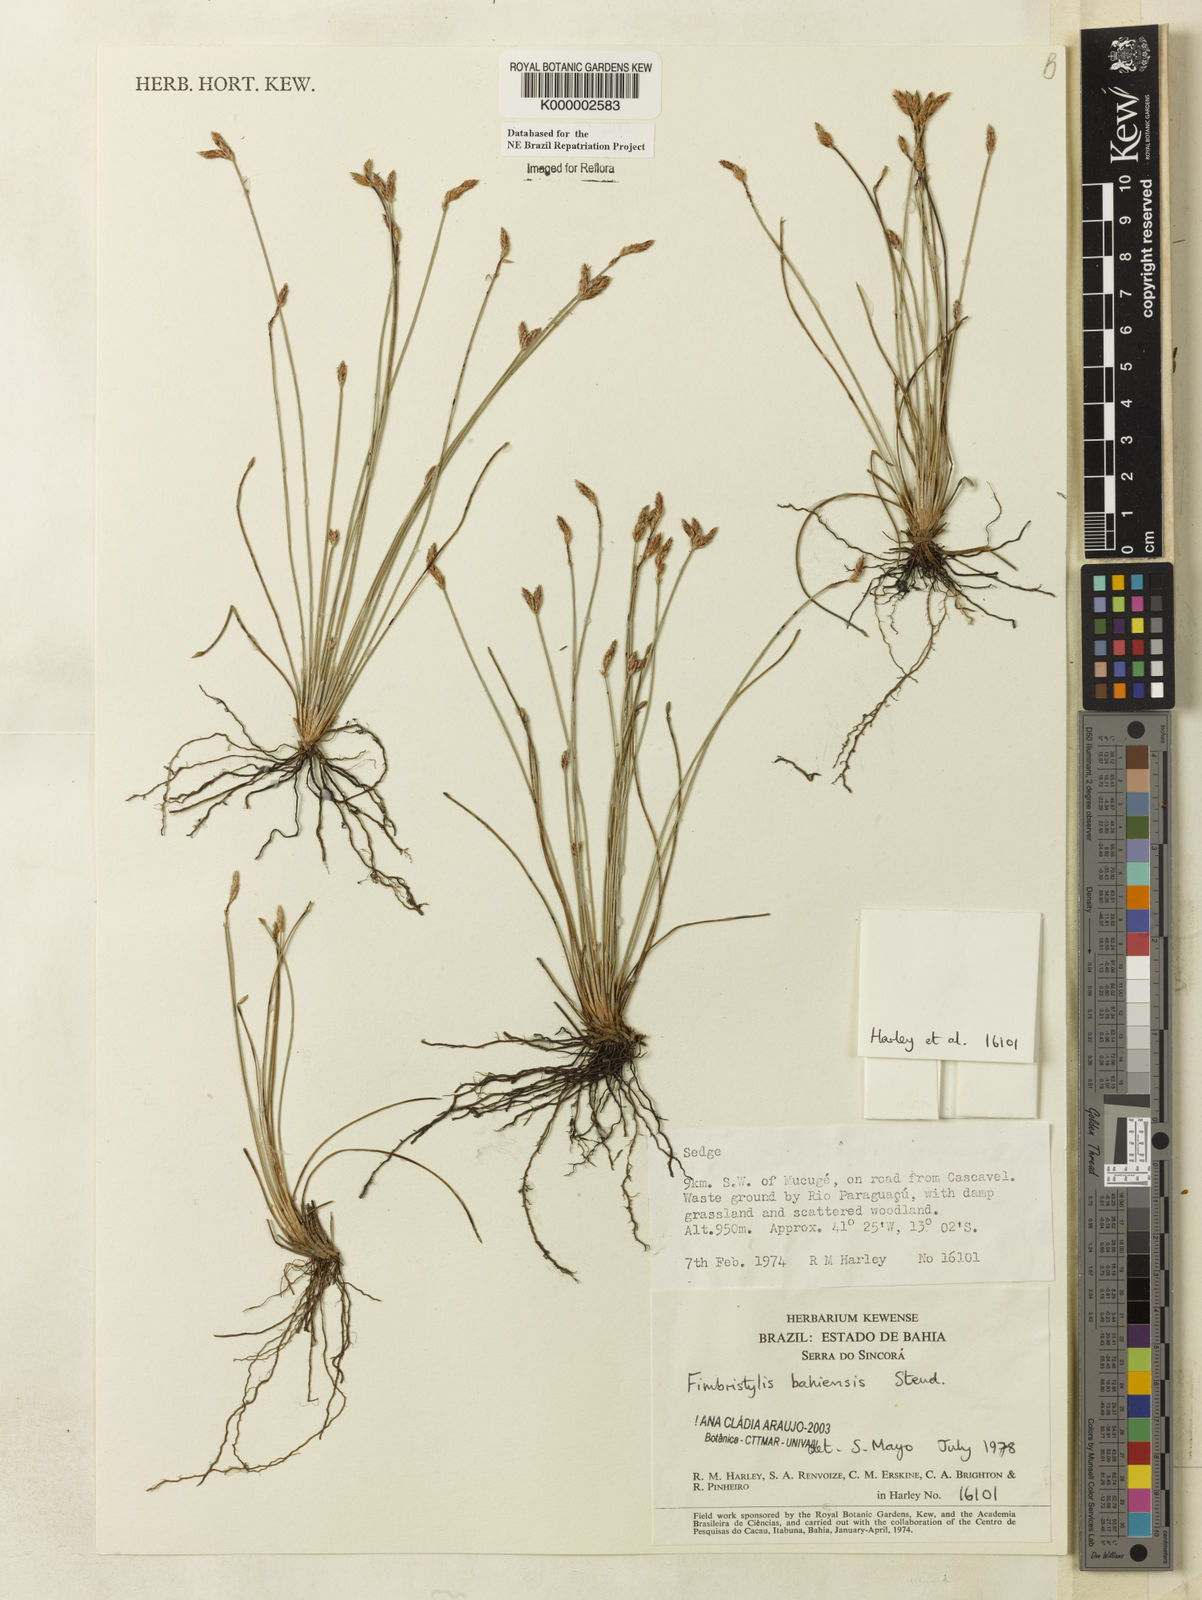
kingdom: Plantae
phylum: Tracheophyta
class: Liliopsida
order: Poales
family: Cyperaceae
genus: Fimbristylis
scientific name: Fimbristylis bahiensis
